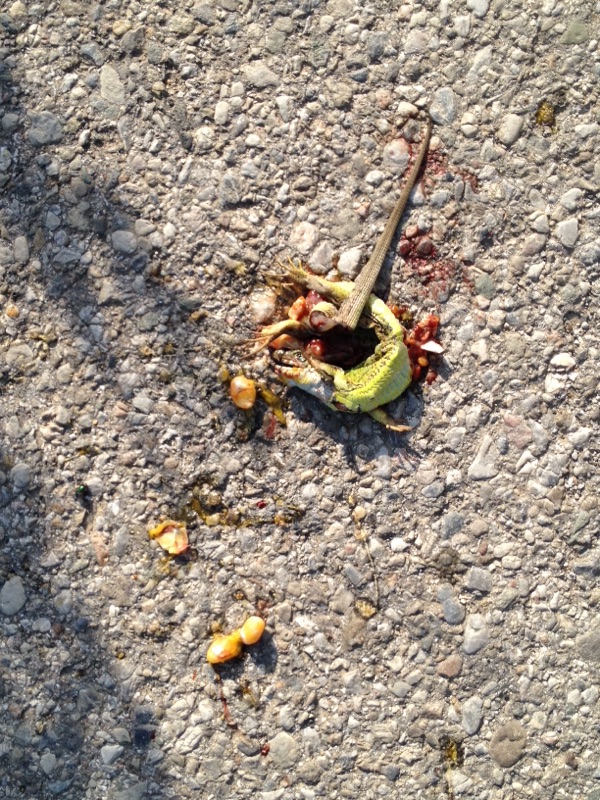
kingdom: Animalia
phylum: Chordata
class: Squamata
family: Lacertidae
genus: Lacerta
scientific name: Lacerta viridis
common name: European green lizard
